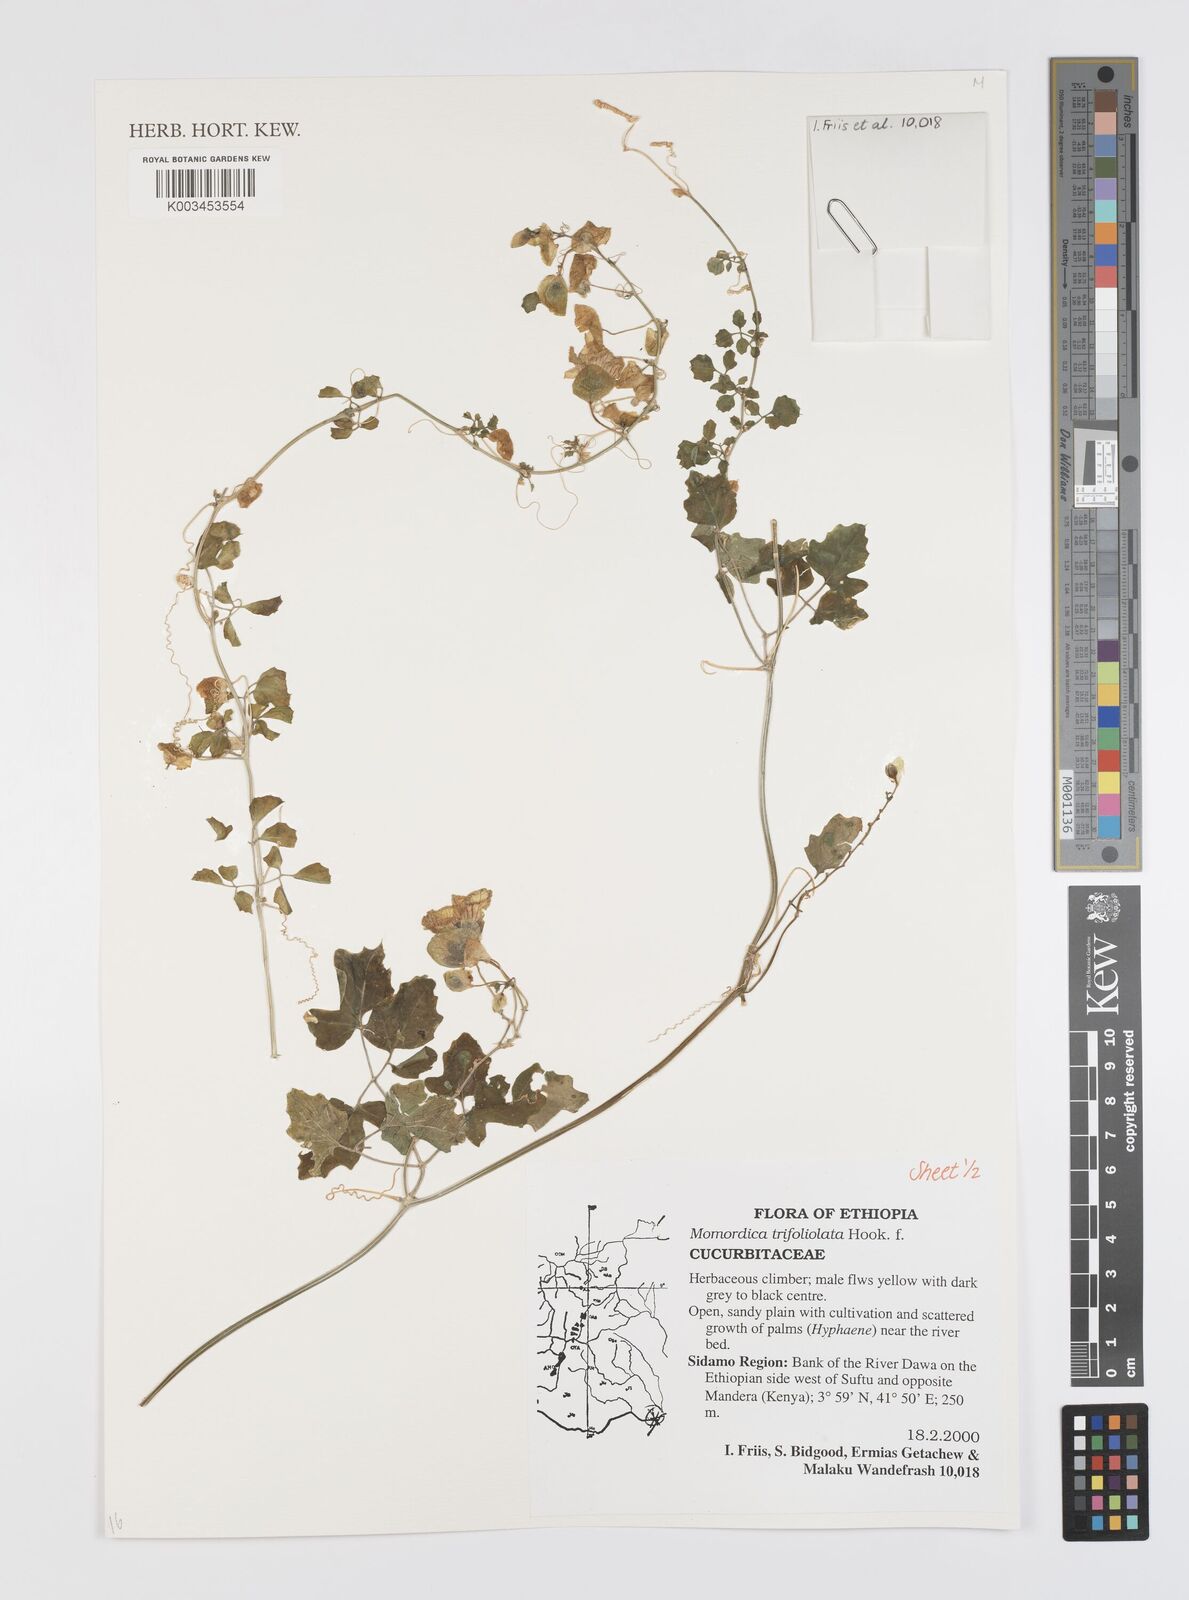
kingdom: Plantae
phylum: Tracheophyta
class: Magnoliopsida
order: Cucurbitales
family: Cucurbitaceae
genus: Momordica
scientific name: Momordica trifoliolata
